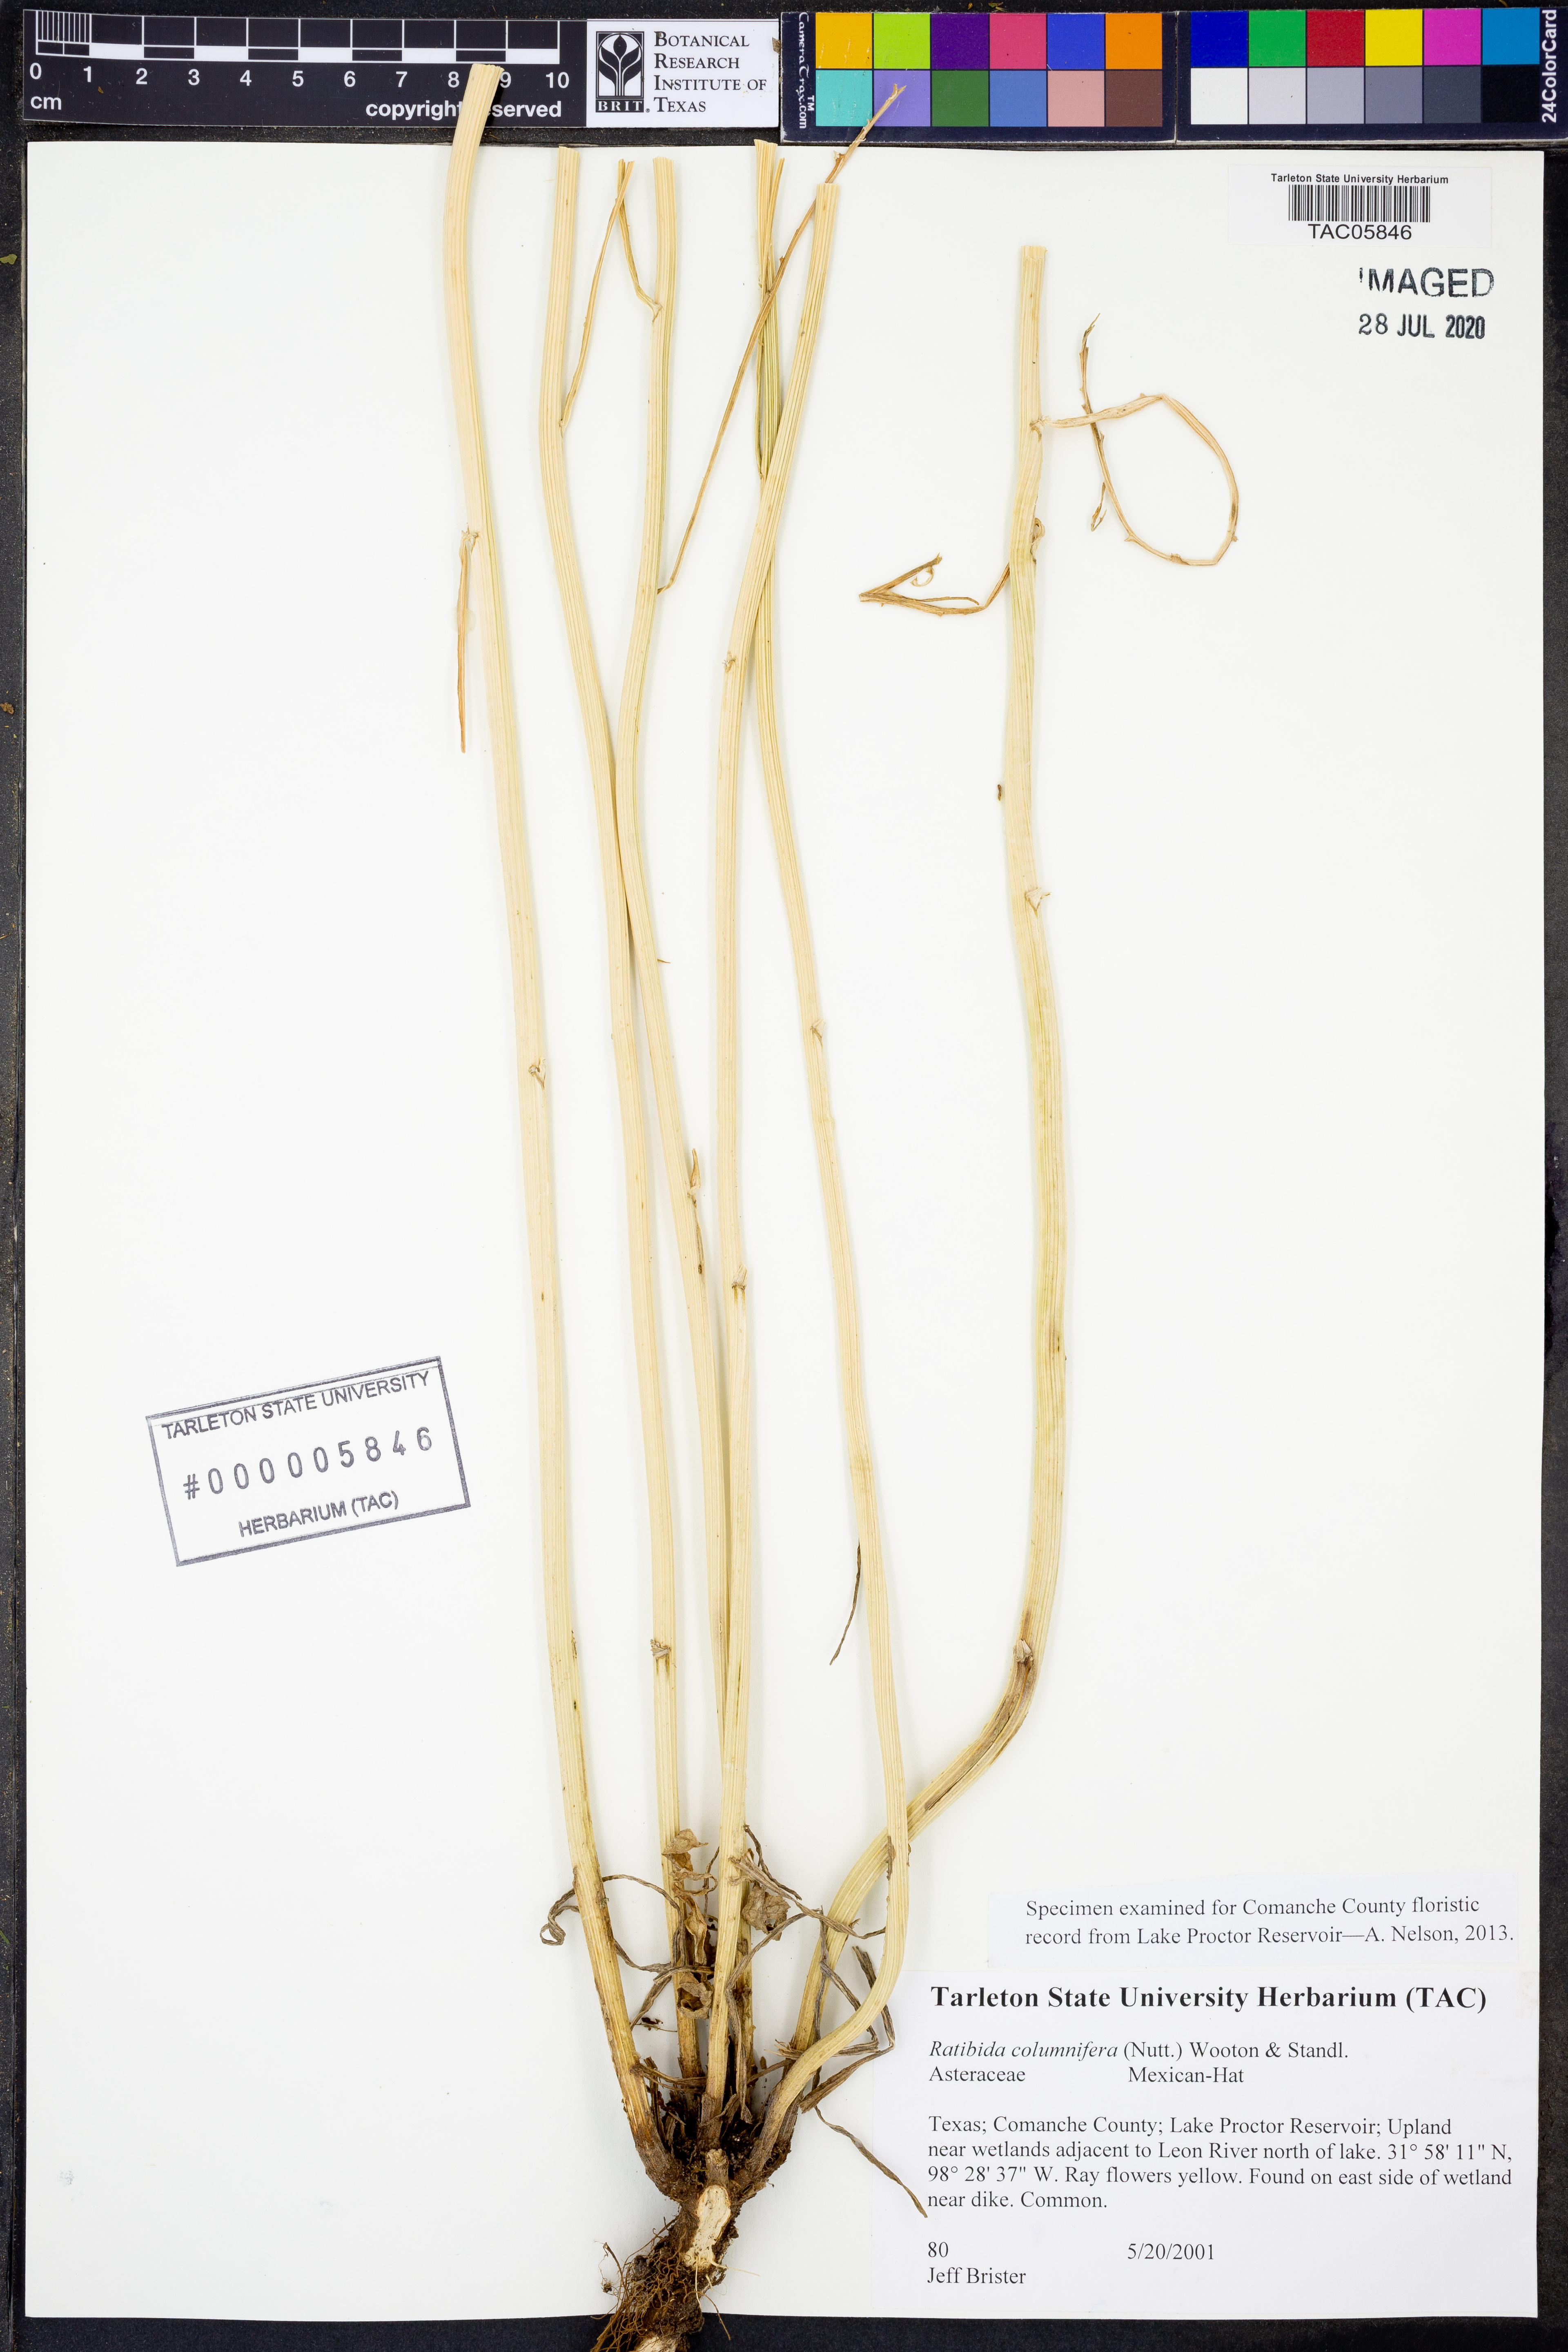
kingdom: Plantae
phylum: Tracheophyta
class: Magnoliopsida
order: Asterales
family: Asteraceae
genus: Ratibida
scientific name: Ratibida columnifera
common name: Prairie coneflower
